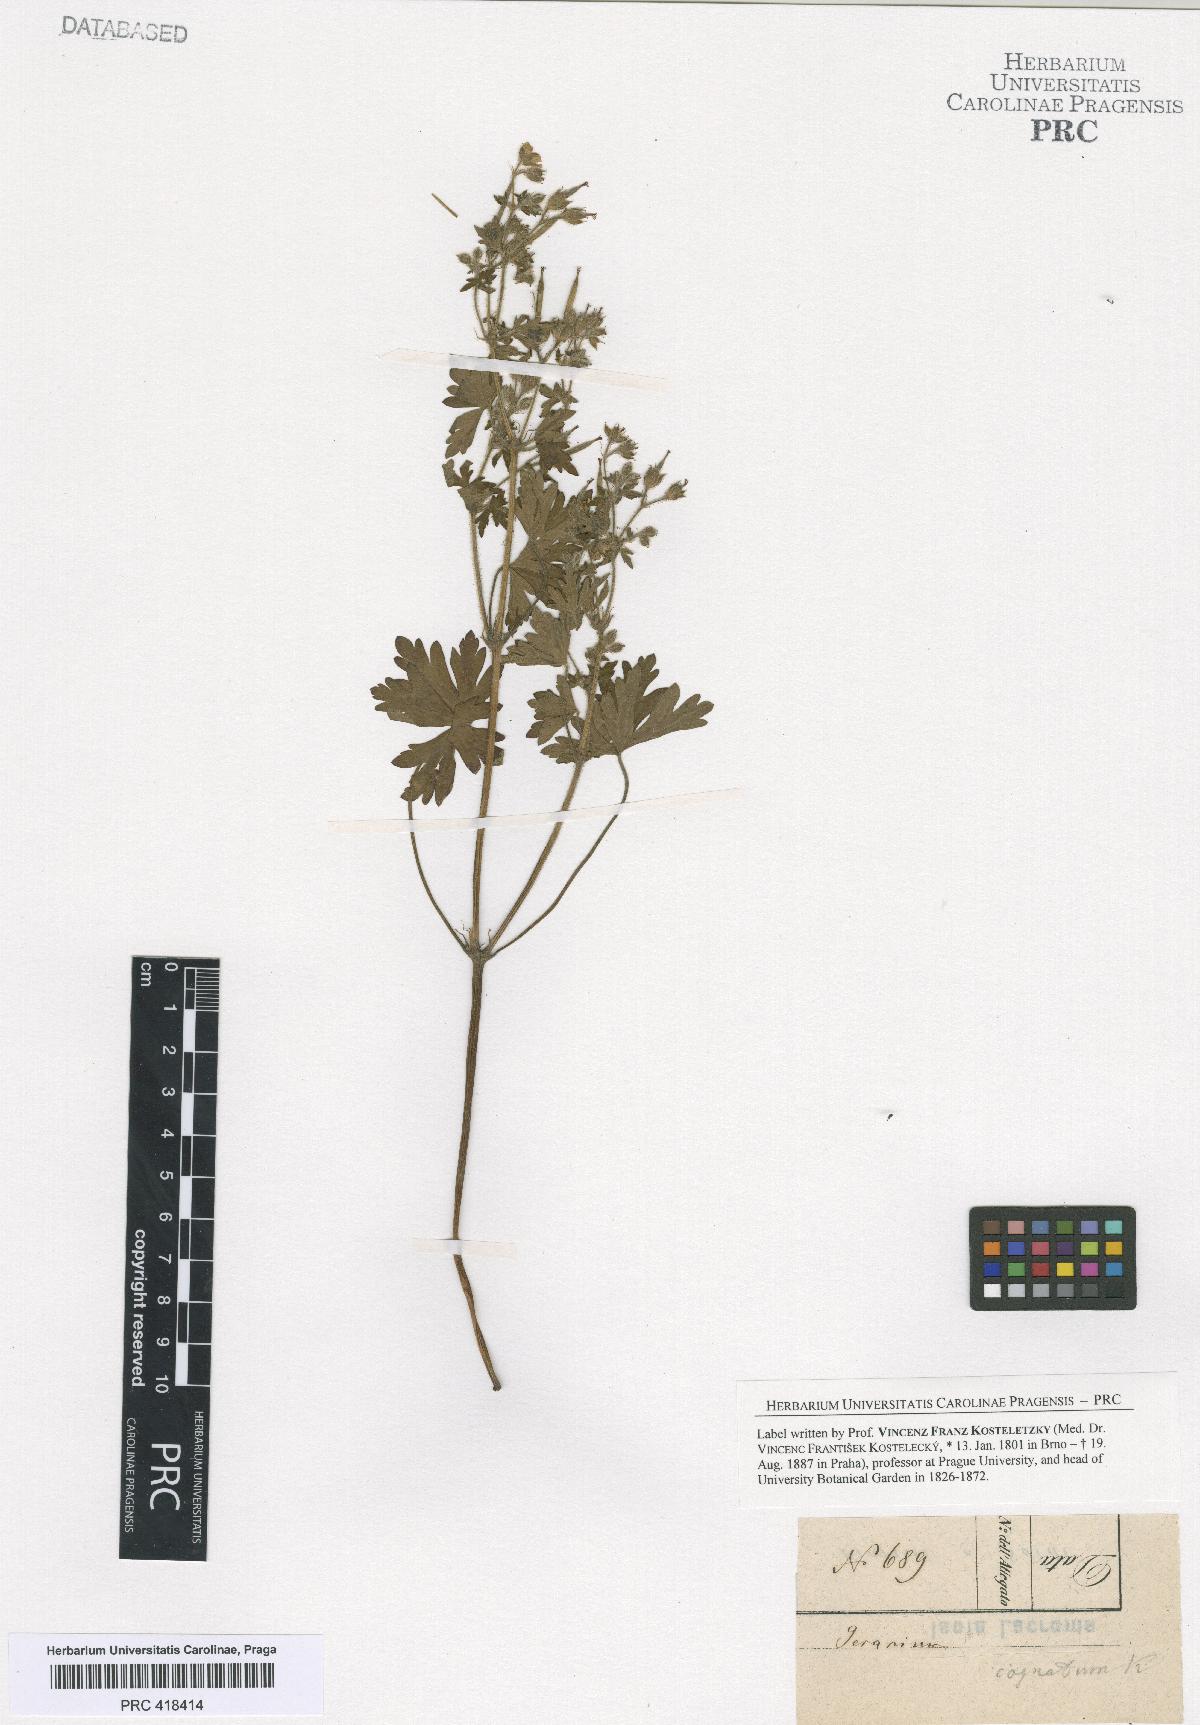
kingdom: Plantae
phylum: Tracheophyta
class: Magnoliopsida
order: Geraniales
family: Geraniaceae
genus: Geranium
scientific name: Geranium
